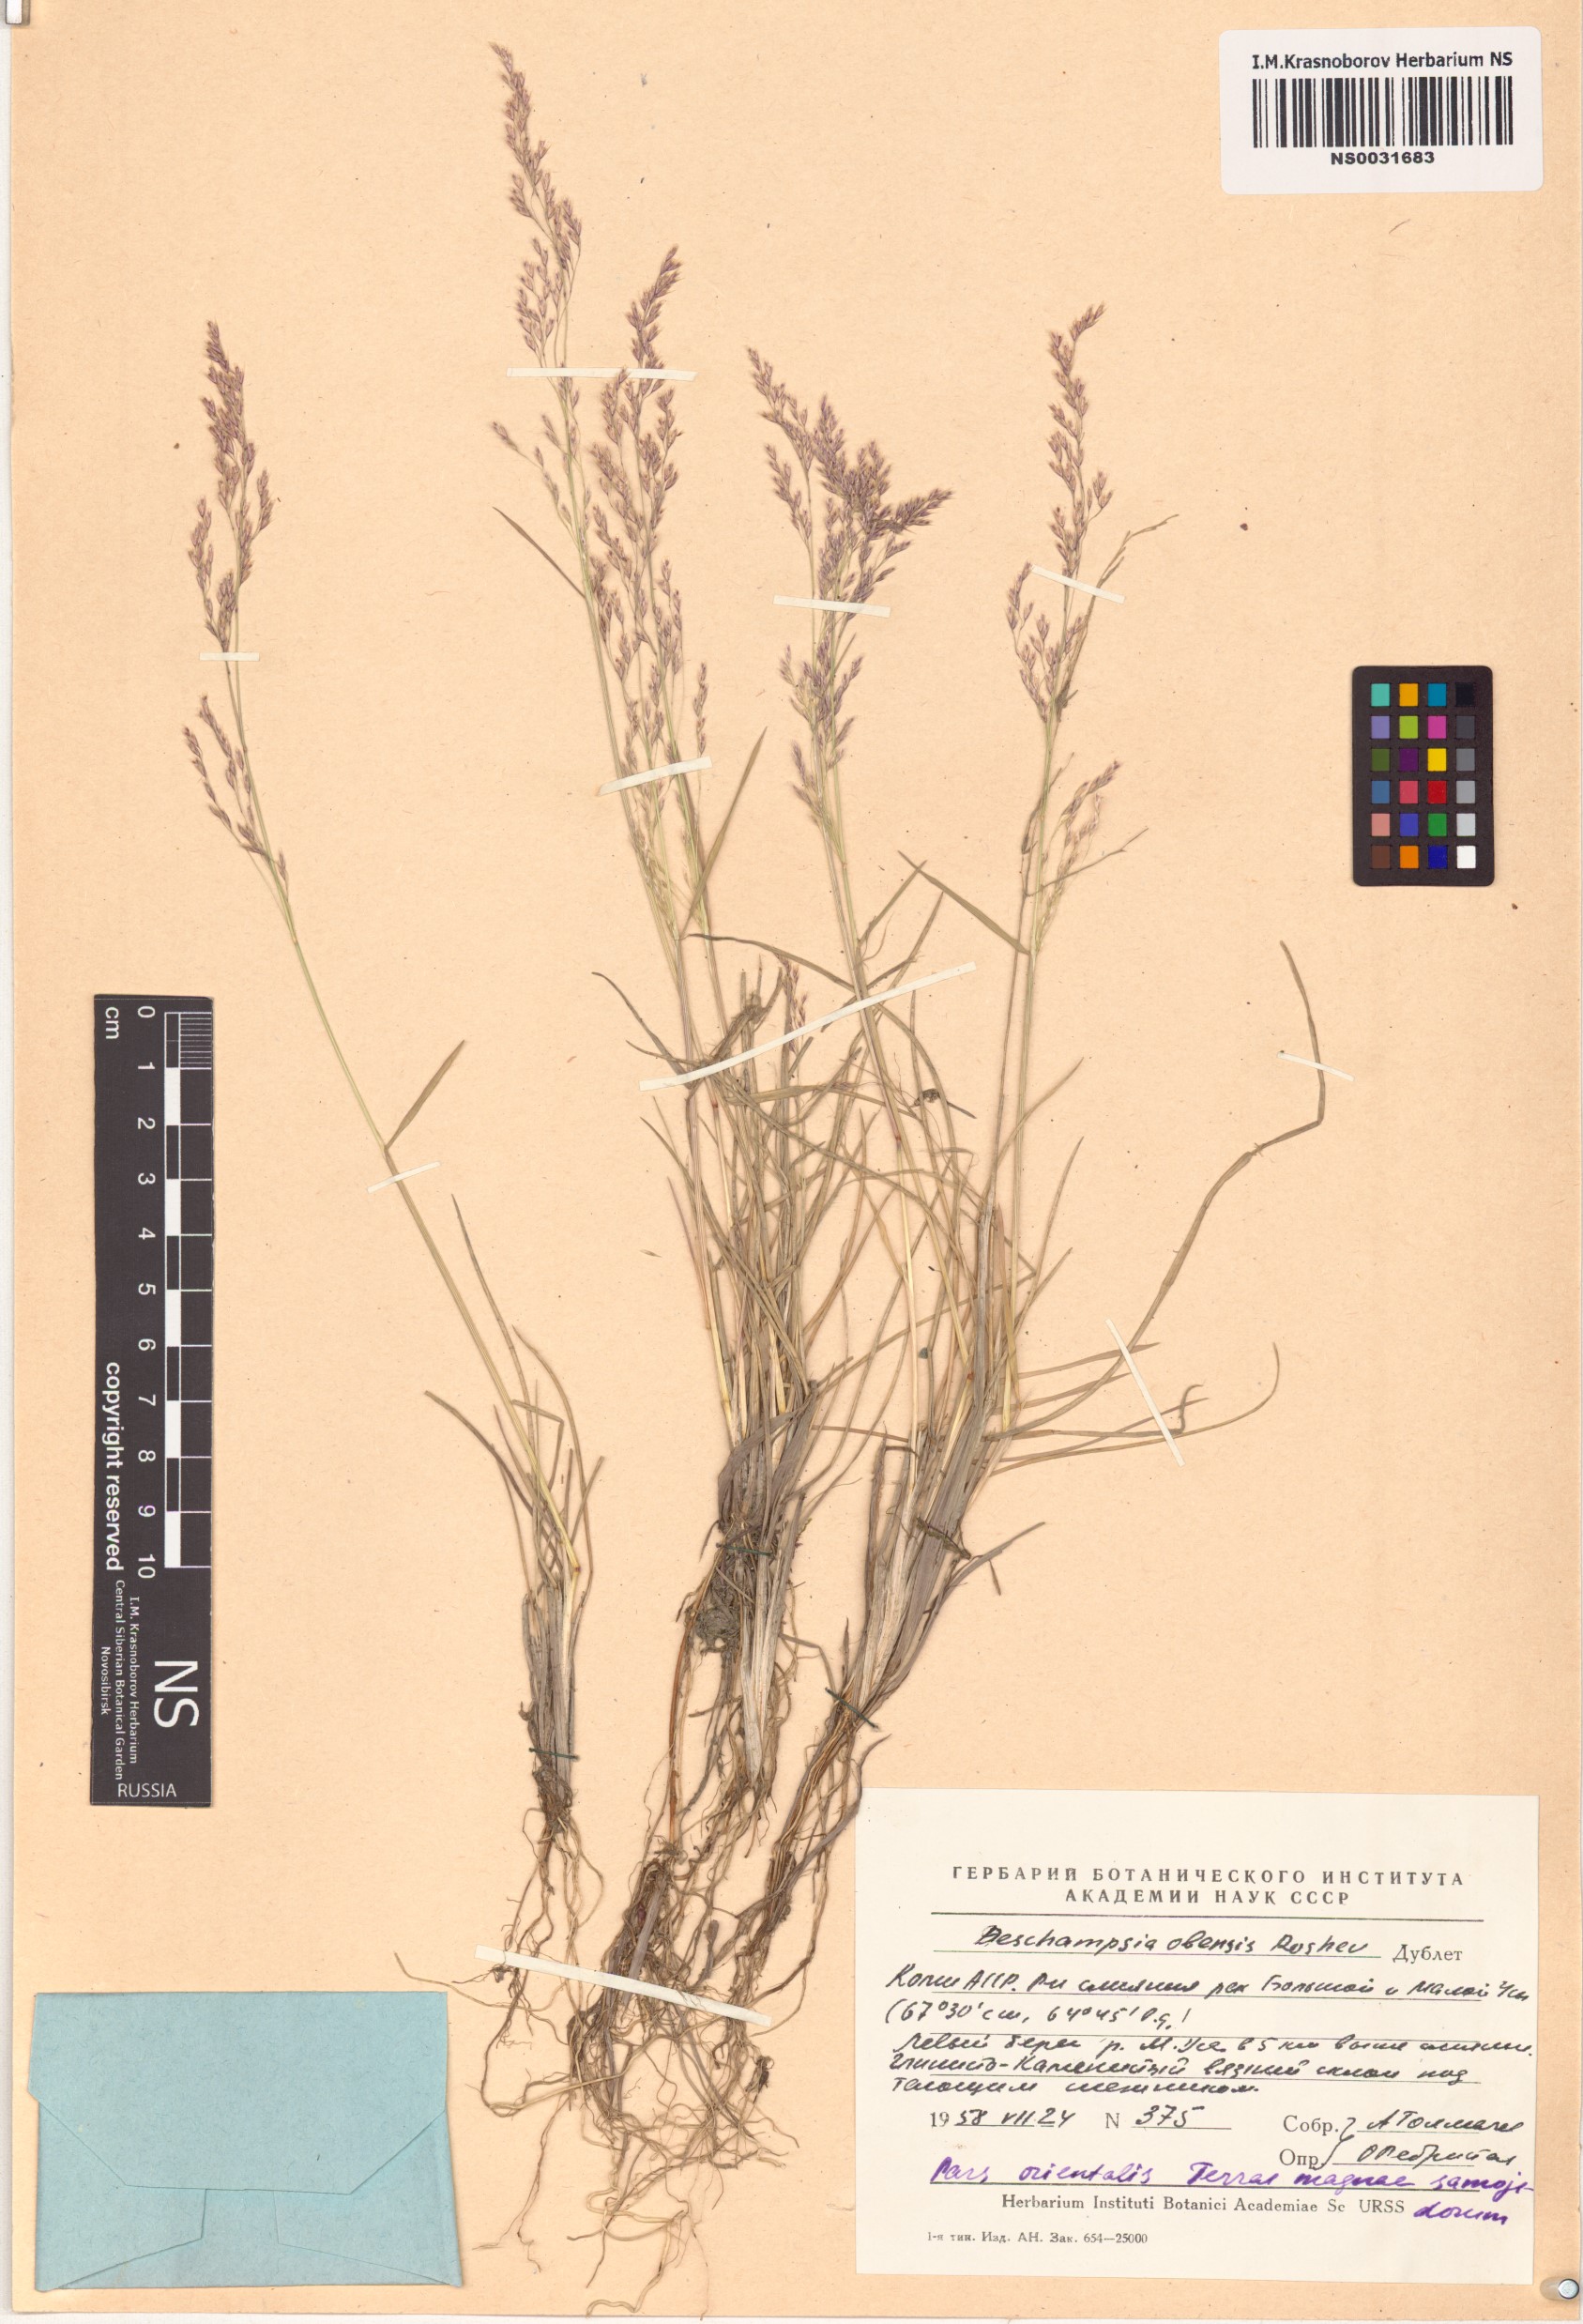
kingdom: Plantae
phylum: Tracheophyta
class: Liliopsida
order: Poales
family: Poaceae
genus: Deschampsia
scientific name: Deschampsia cespitosa
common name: Tufted hair-grass
